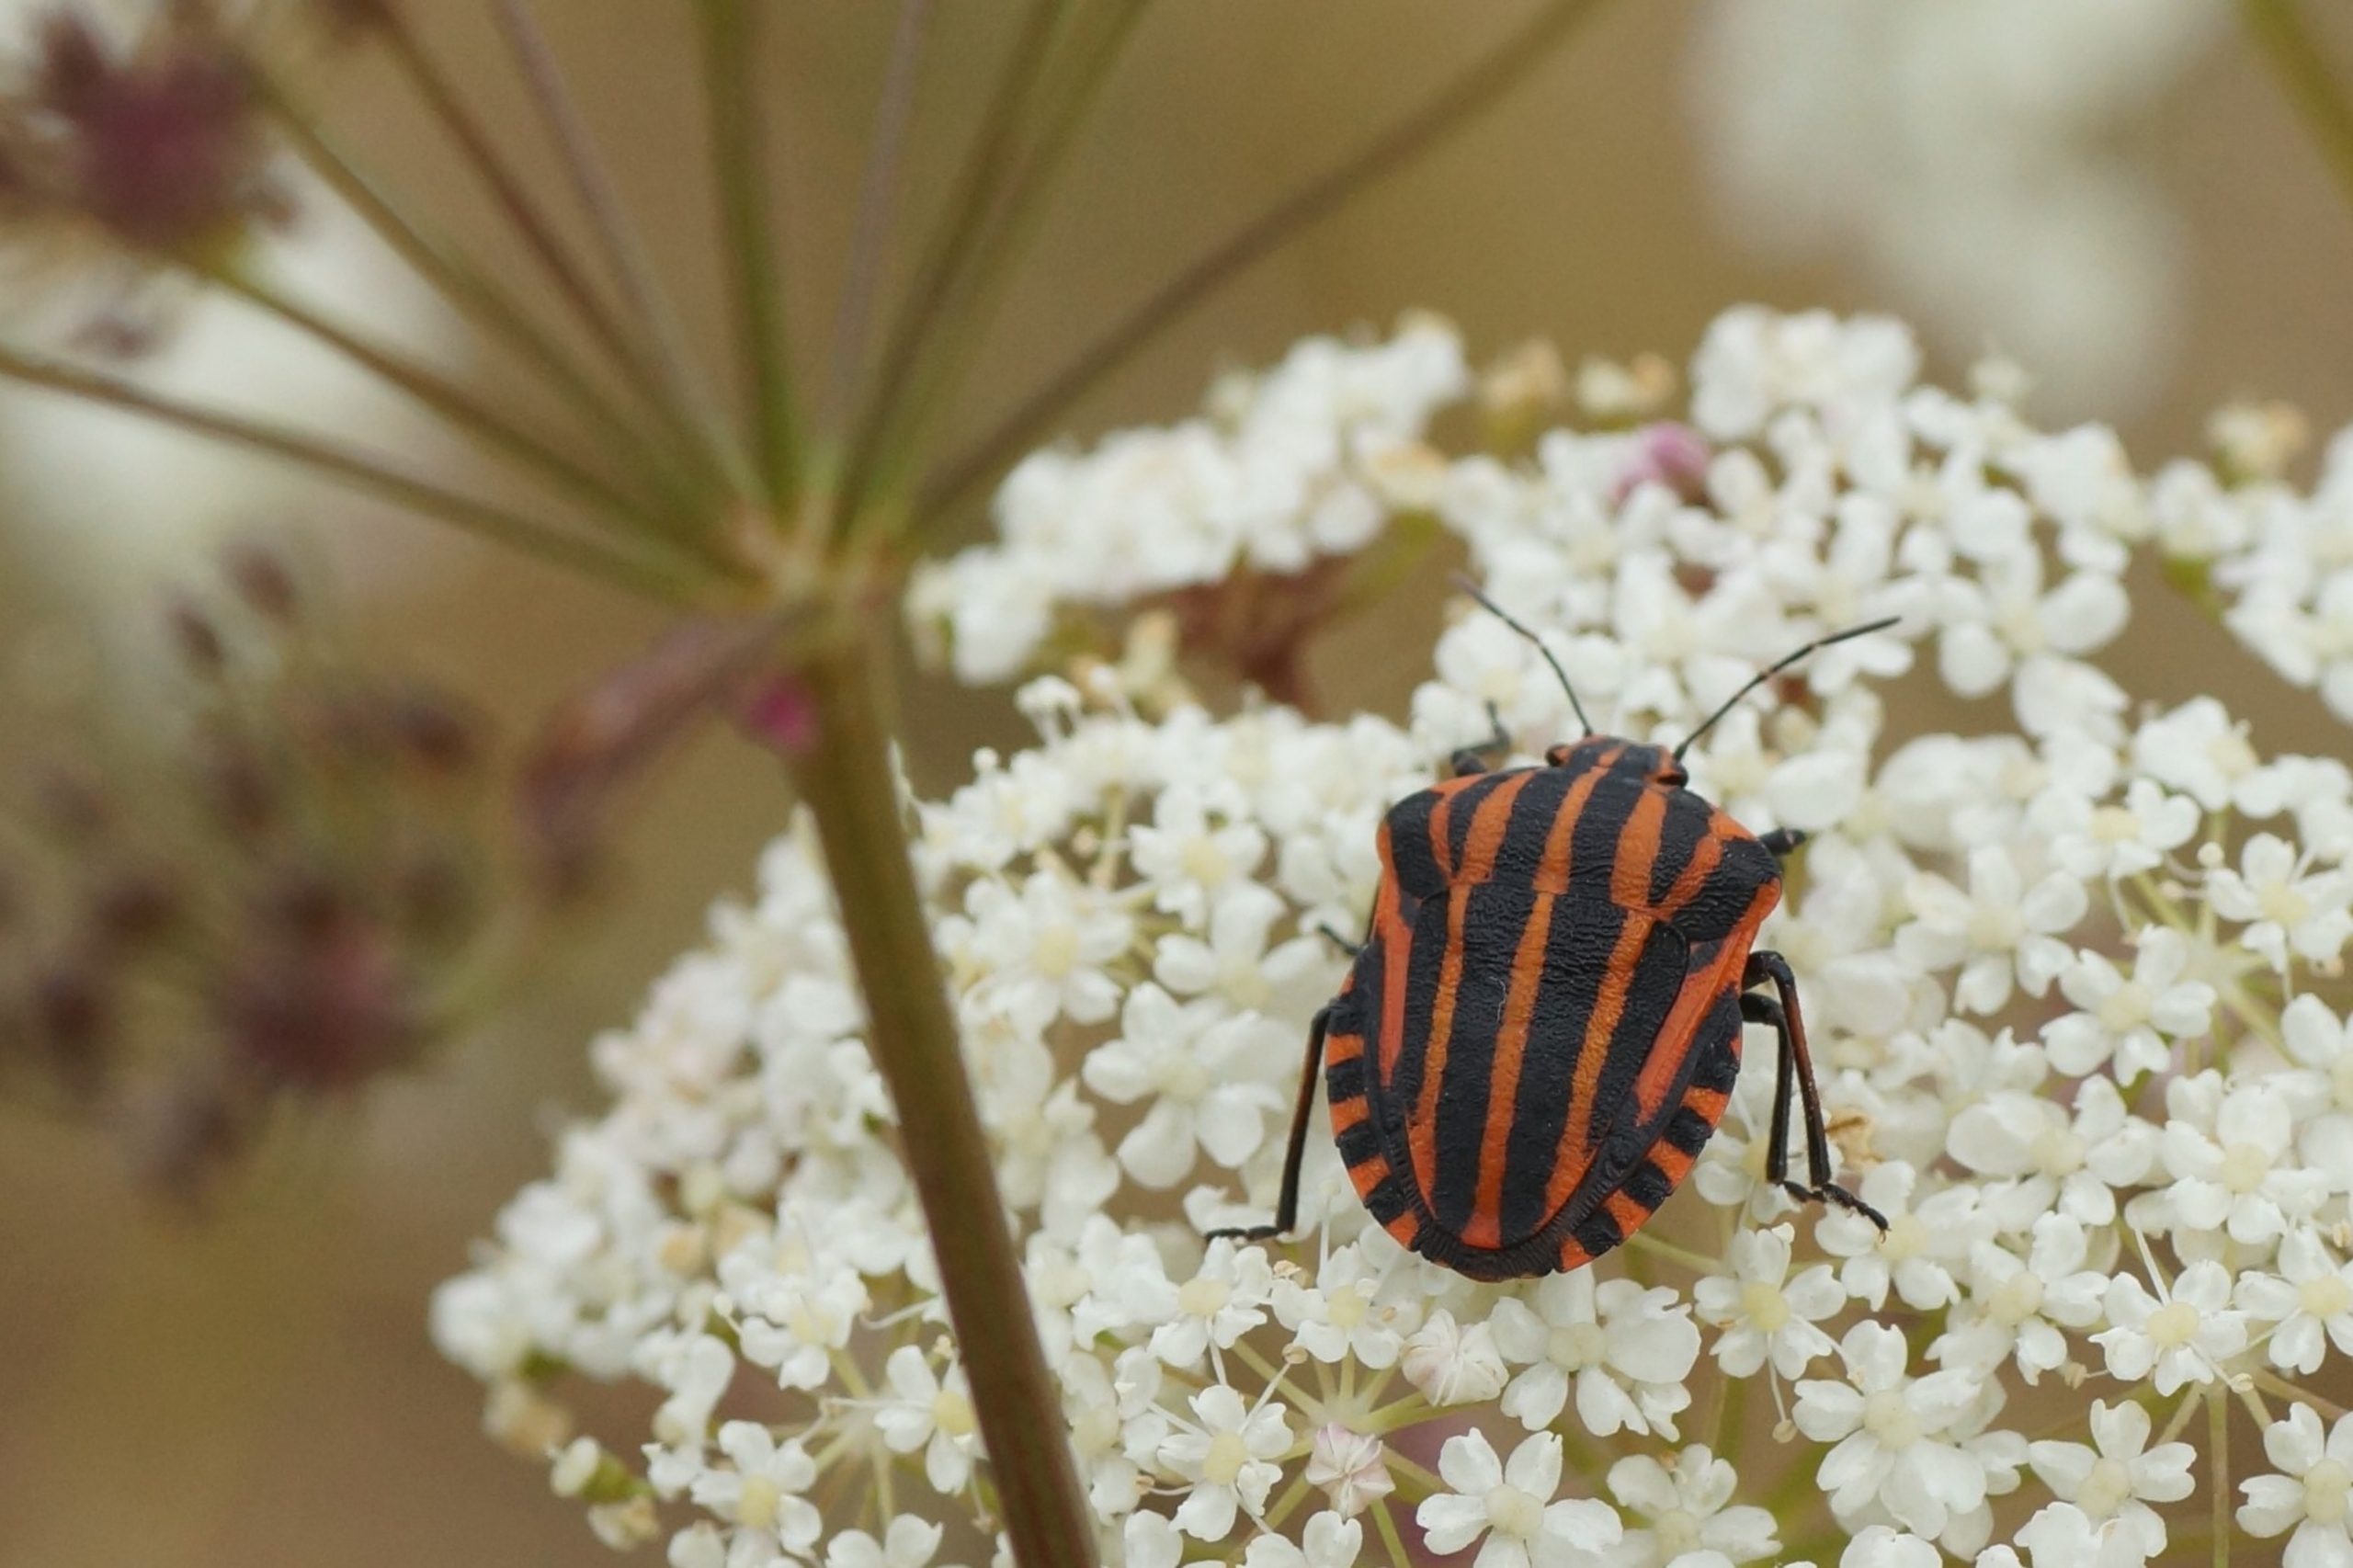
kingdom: Animalia
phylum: Arthropoda
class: Insecta
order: Hemiptera
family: Pentatomidae
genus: Graphosoma
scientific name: Graphosoma italicum
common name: Stribetæge
